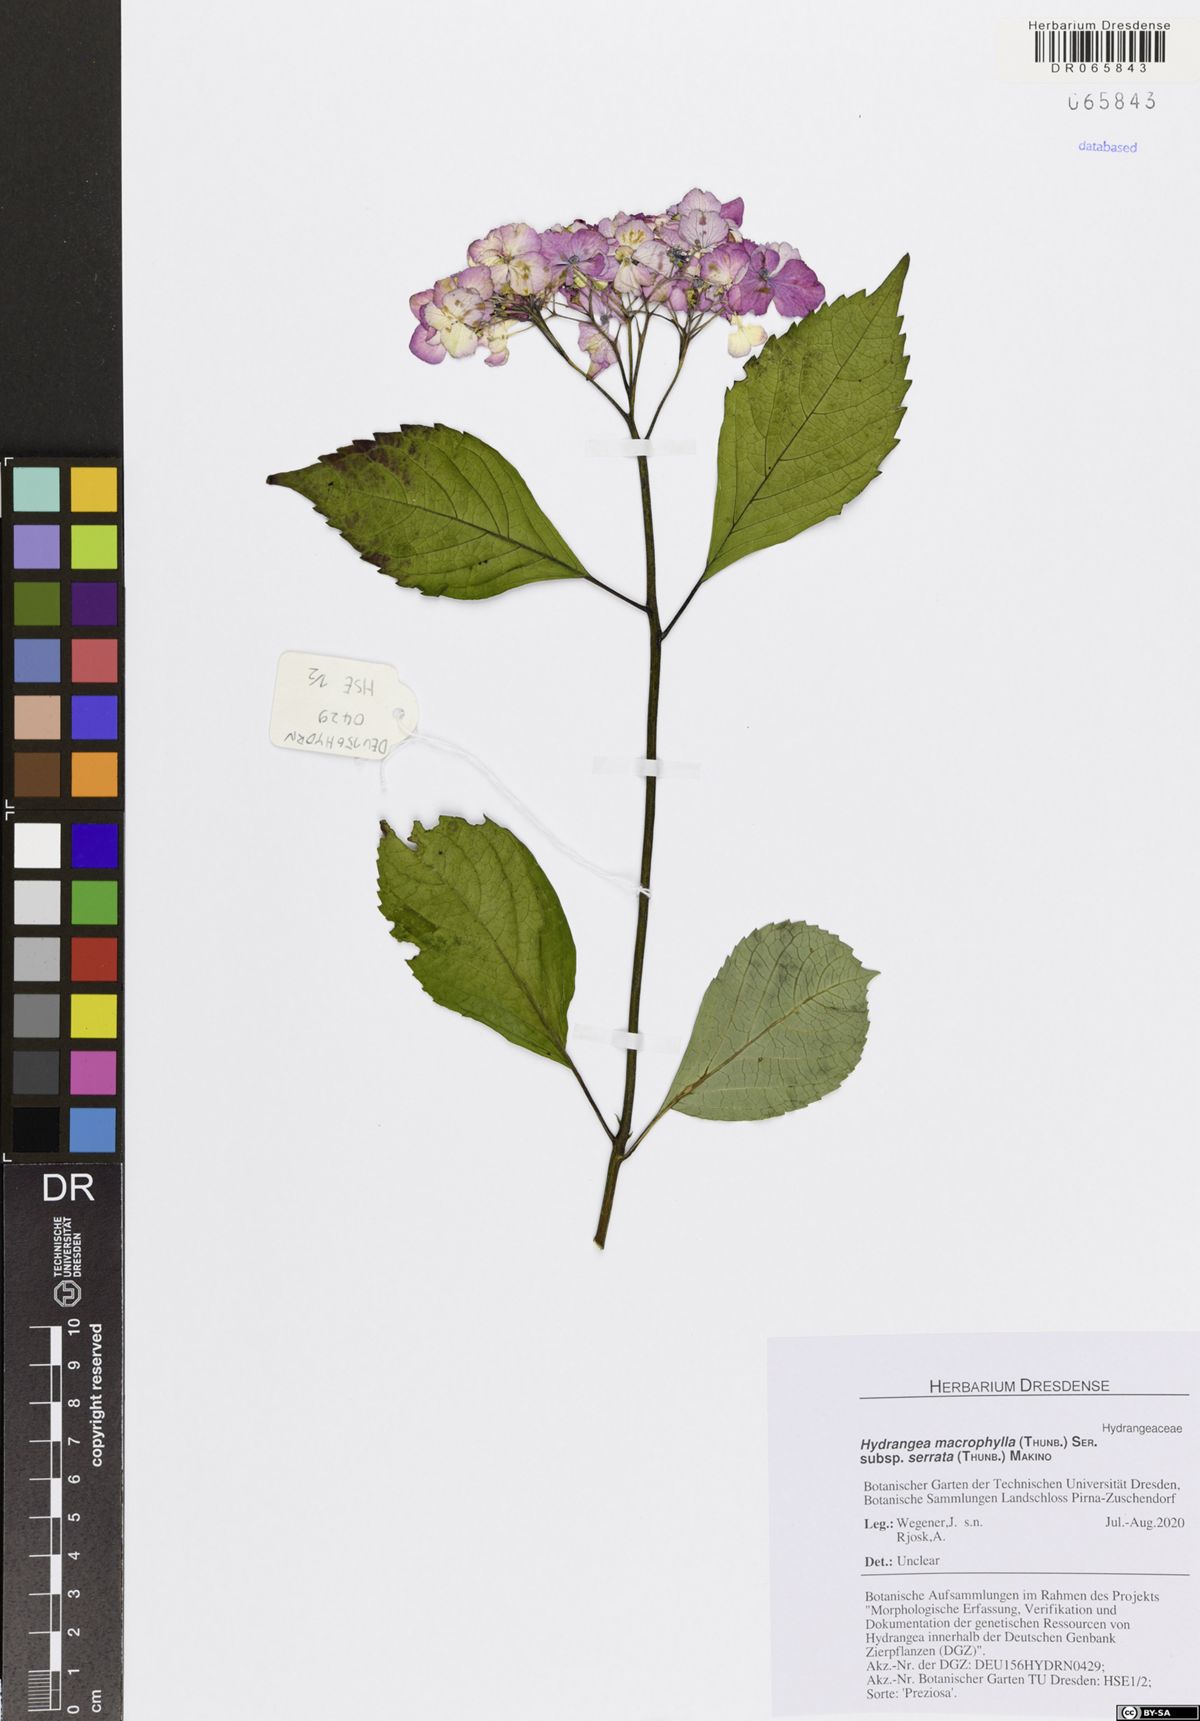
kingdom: Plantae
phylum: Tracheophyta
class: Magnoliopsida
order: Cornales
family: Hydrangeaceae
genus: Hydrangea
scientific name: Hydrangea serrata
